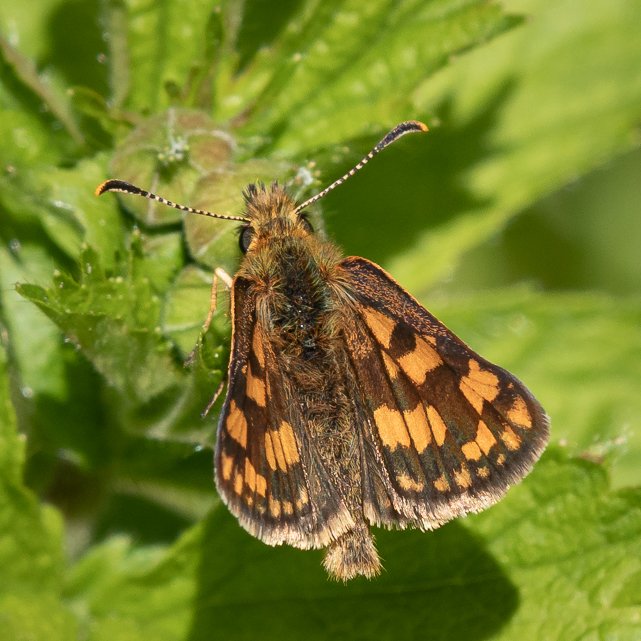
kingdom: Animalia
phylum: Arthropoda
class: Insecta
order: Lepidoptera
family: Hesperiidae
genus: Carterocephalus
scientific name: Carterocephalus palaemon
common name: Chequered Skipper
